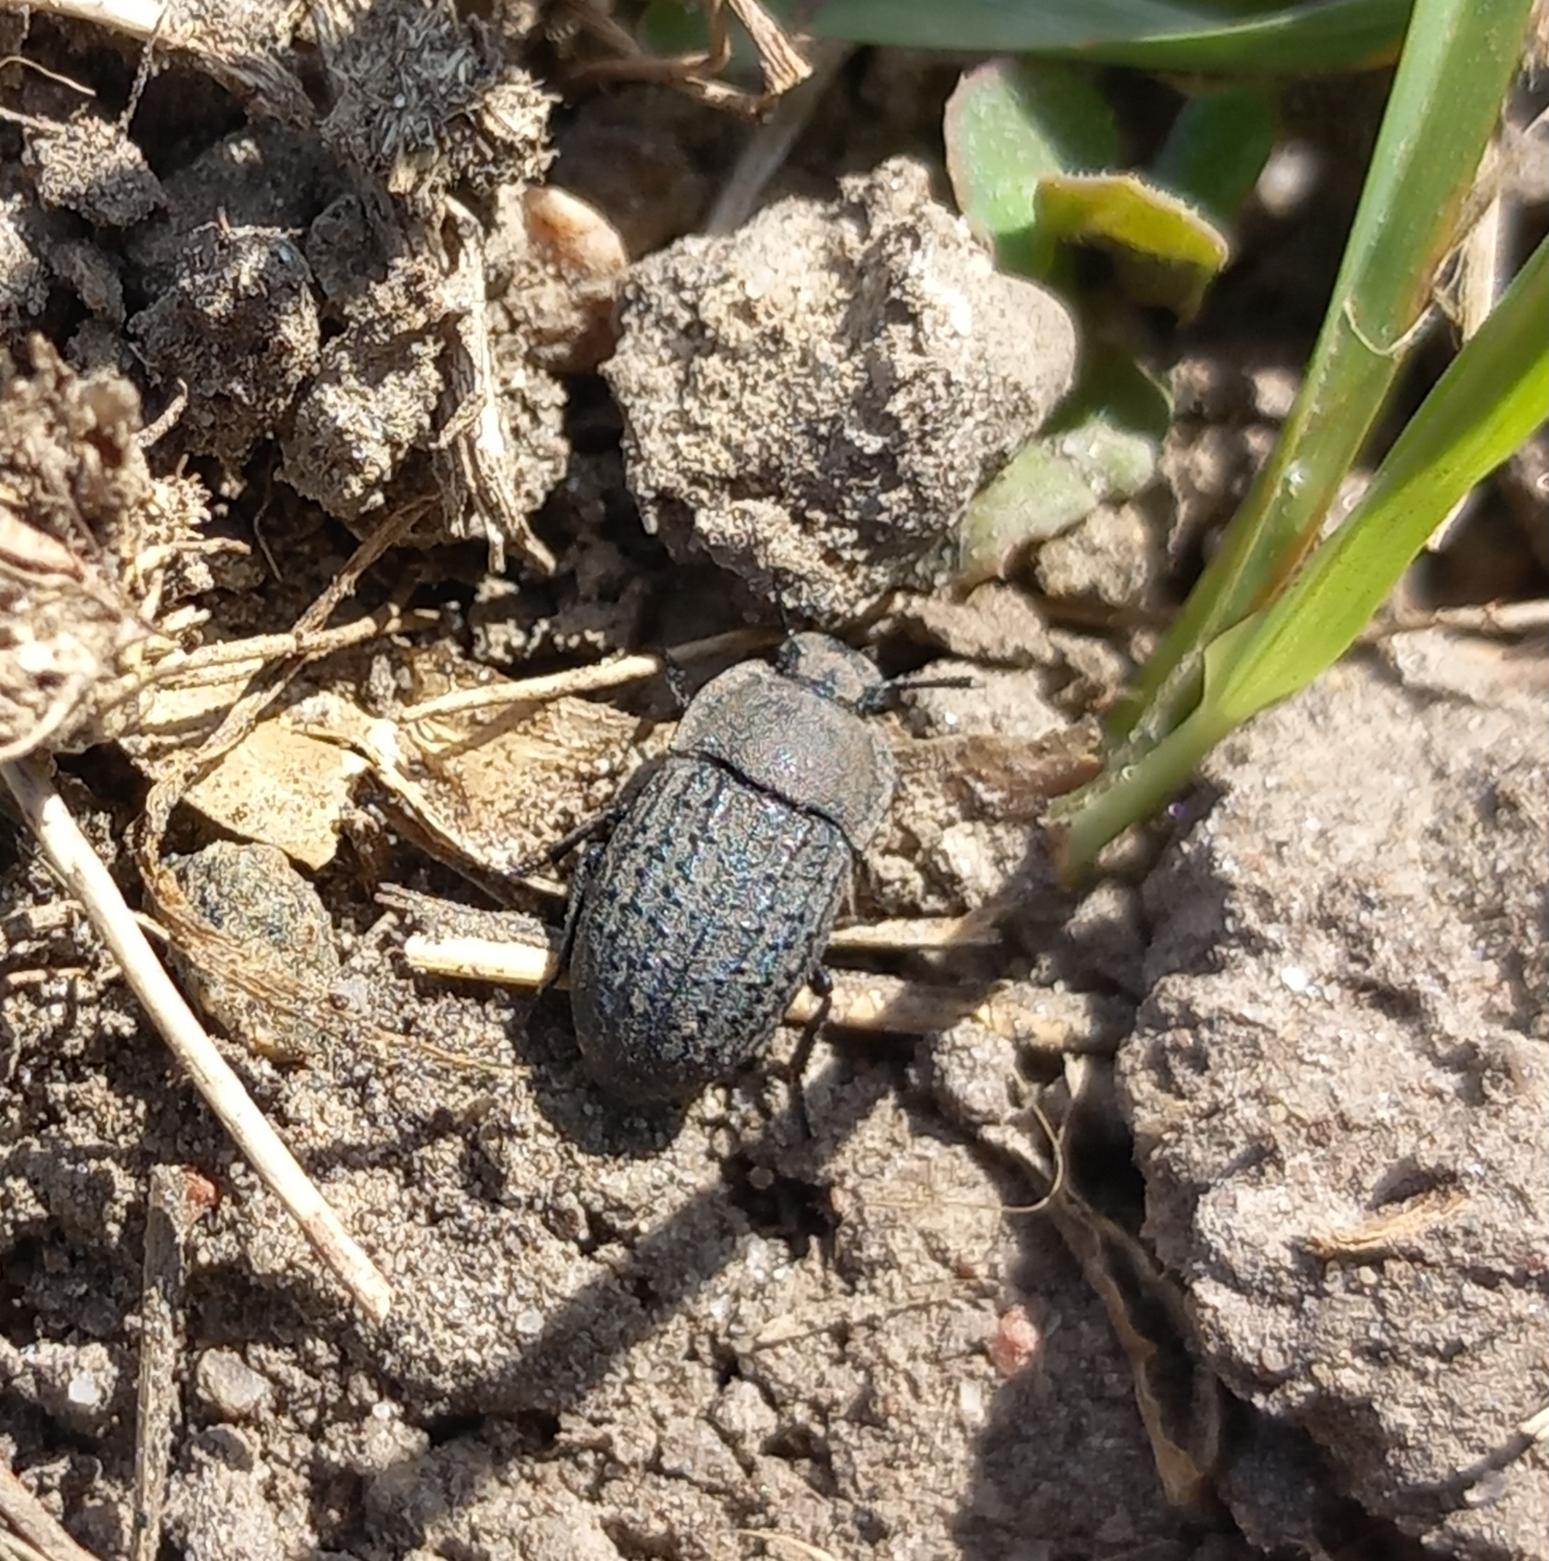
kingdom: Animalia
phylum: Arthropoda
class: Insecta
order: Coleoptera
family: Tenebrionidae
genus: Opatrum
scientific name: Opatrum sabulosum
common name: Skræntskyggebille
